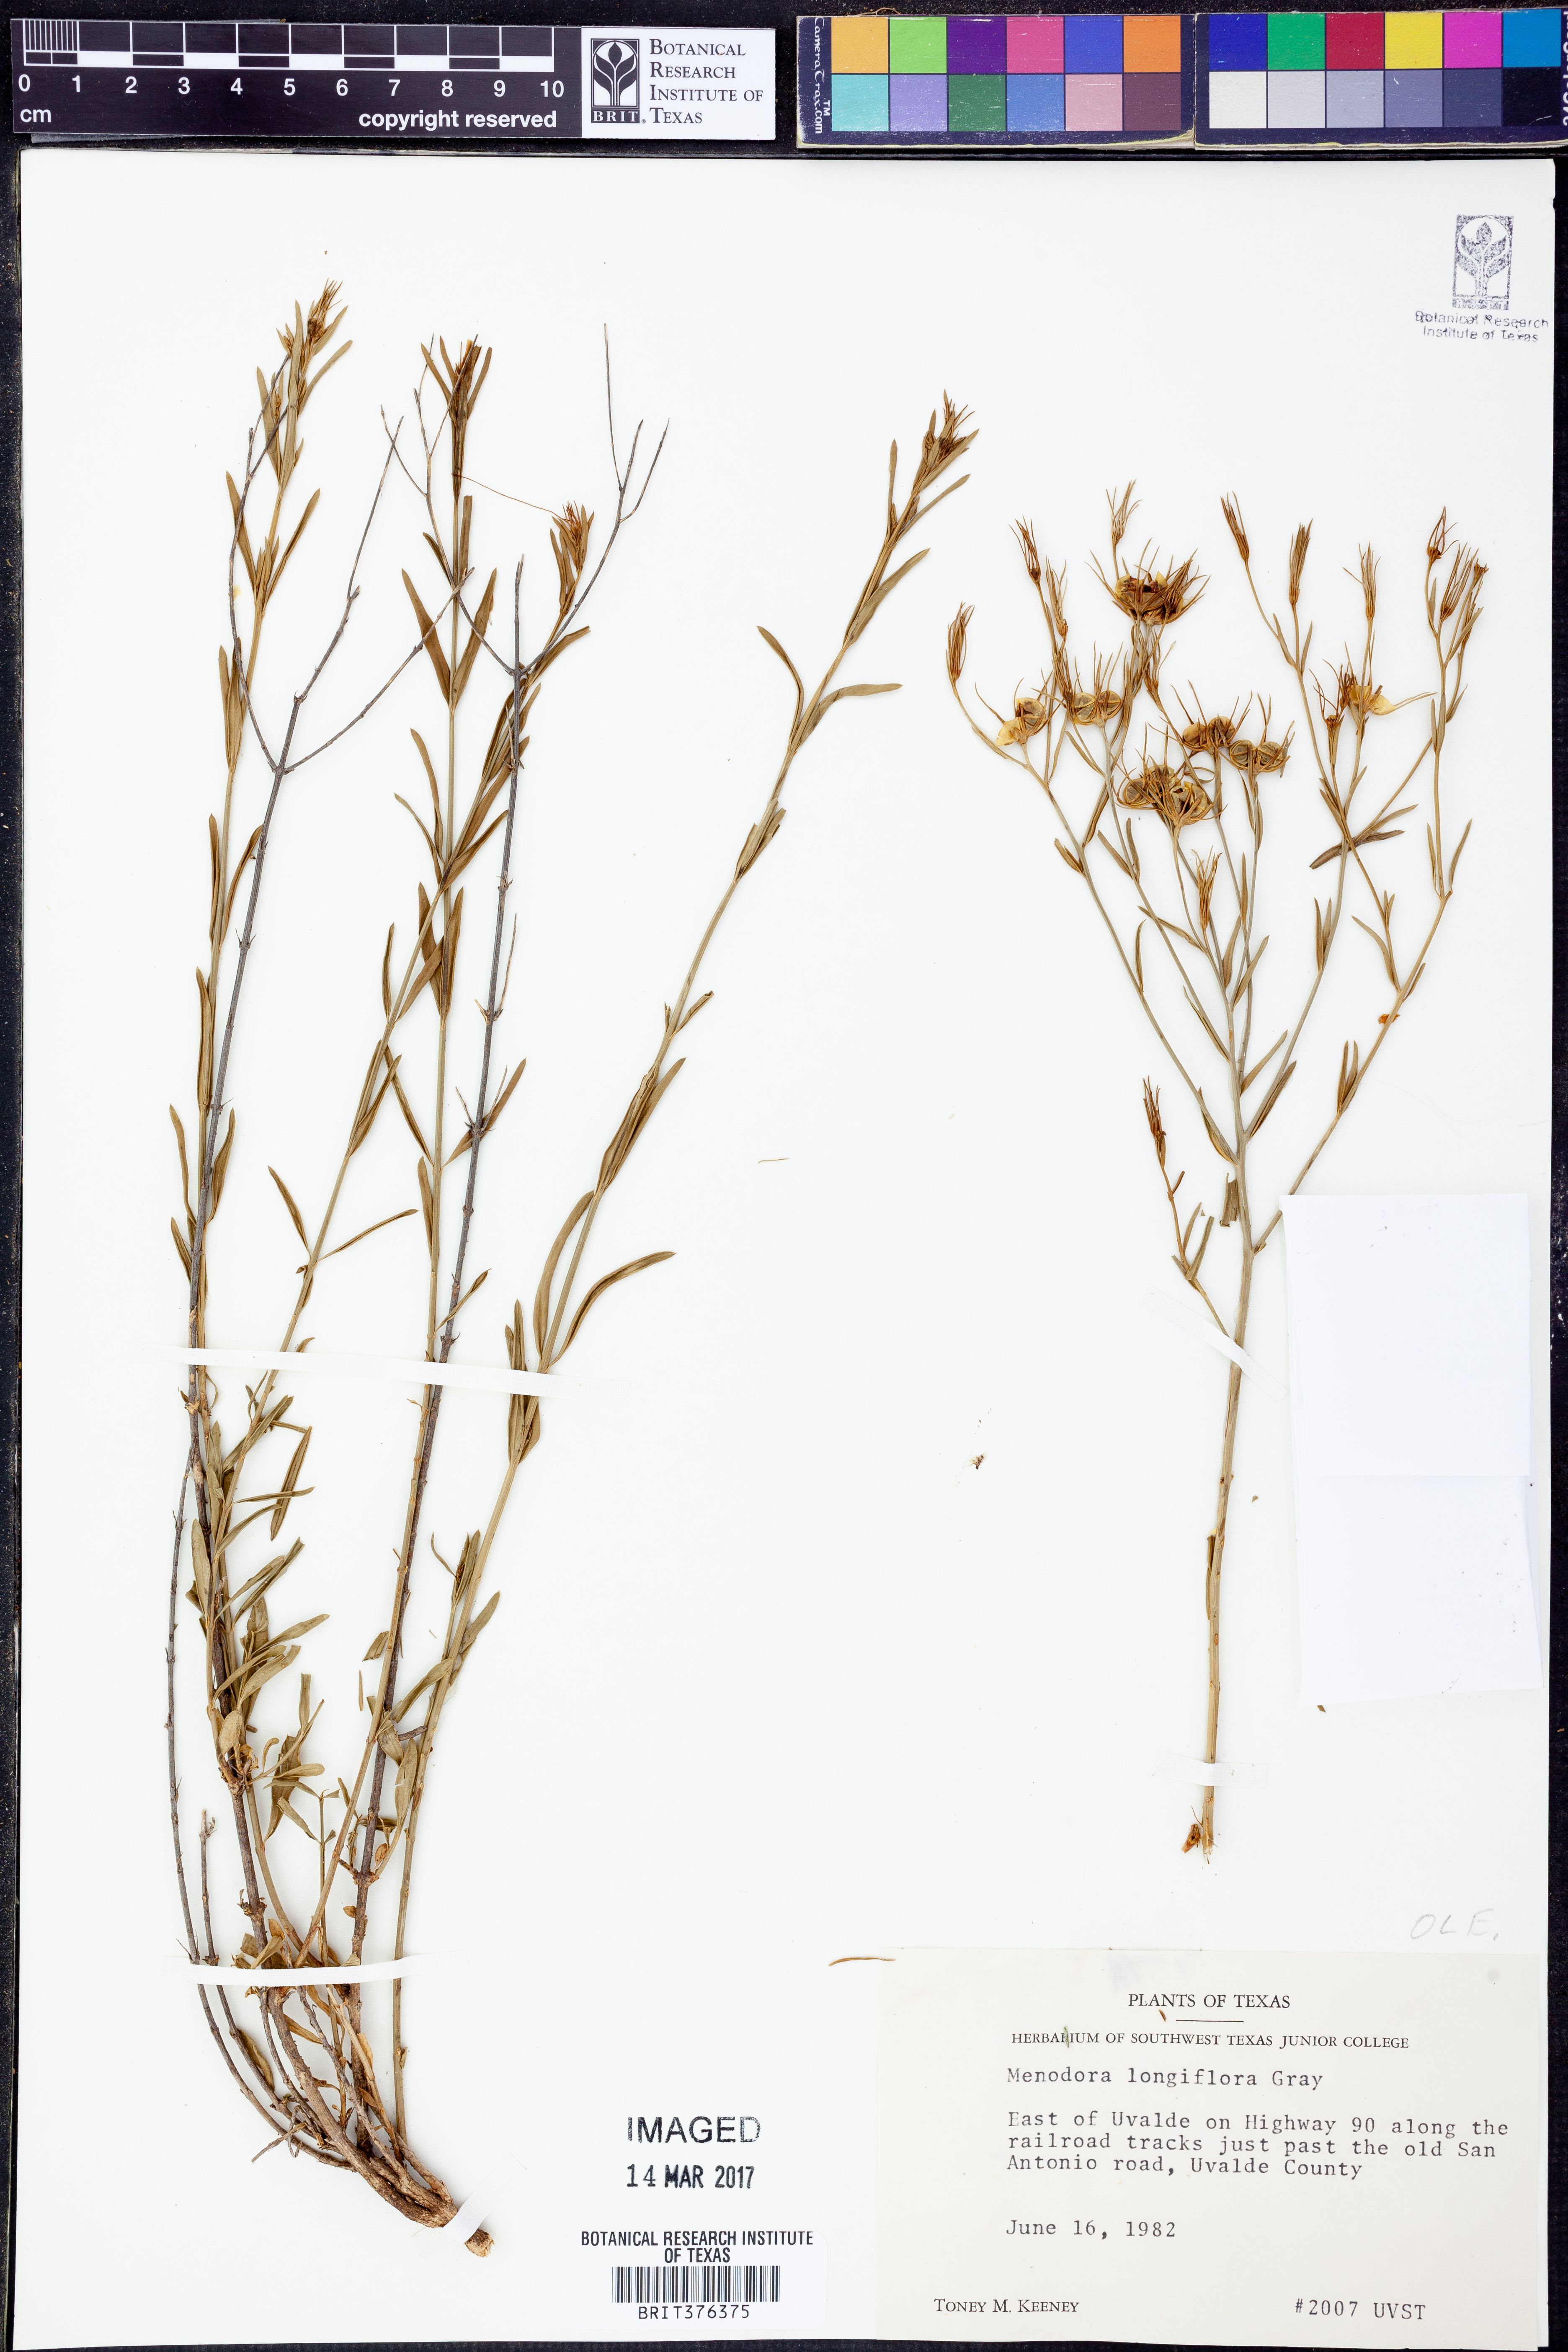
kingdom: Plantae
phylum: Tracheophyta
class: Magnoliopsida
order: Lamiales
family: Oleaceae
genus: Menodora
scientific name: Menodora longiflora
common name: Showy menodora
